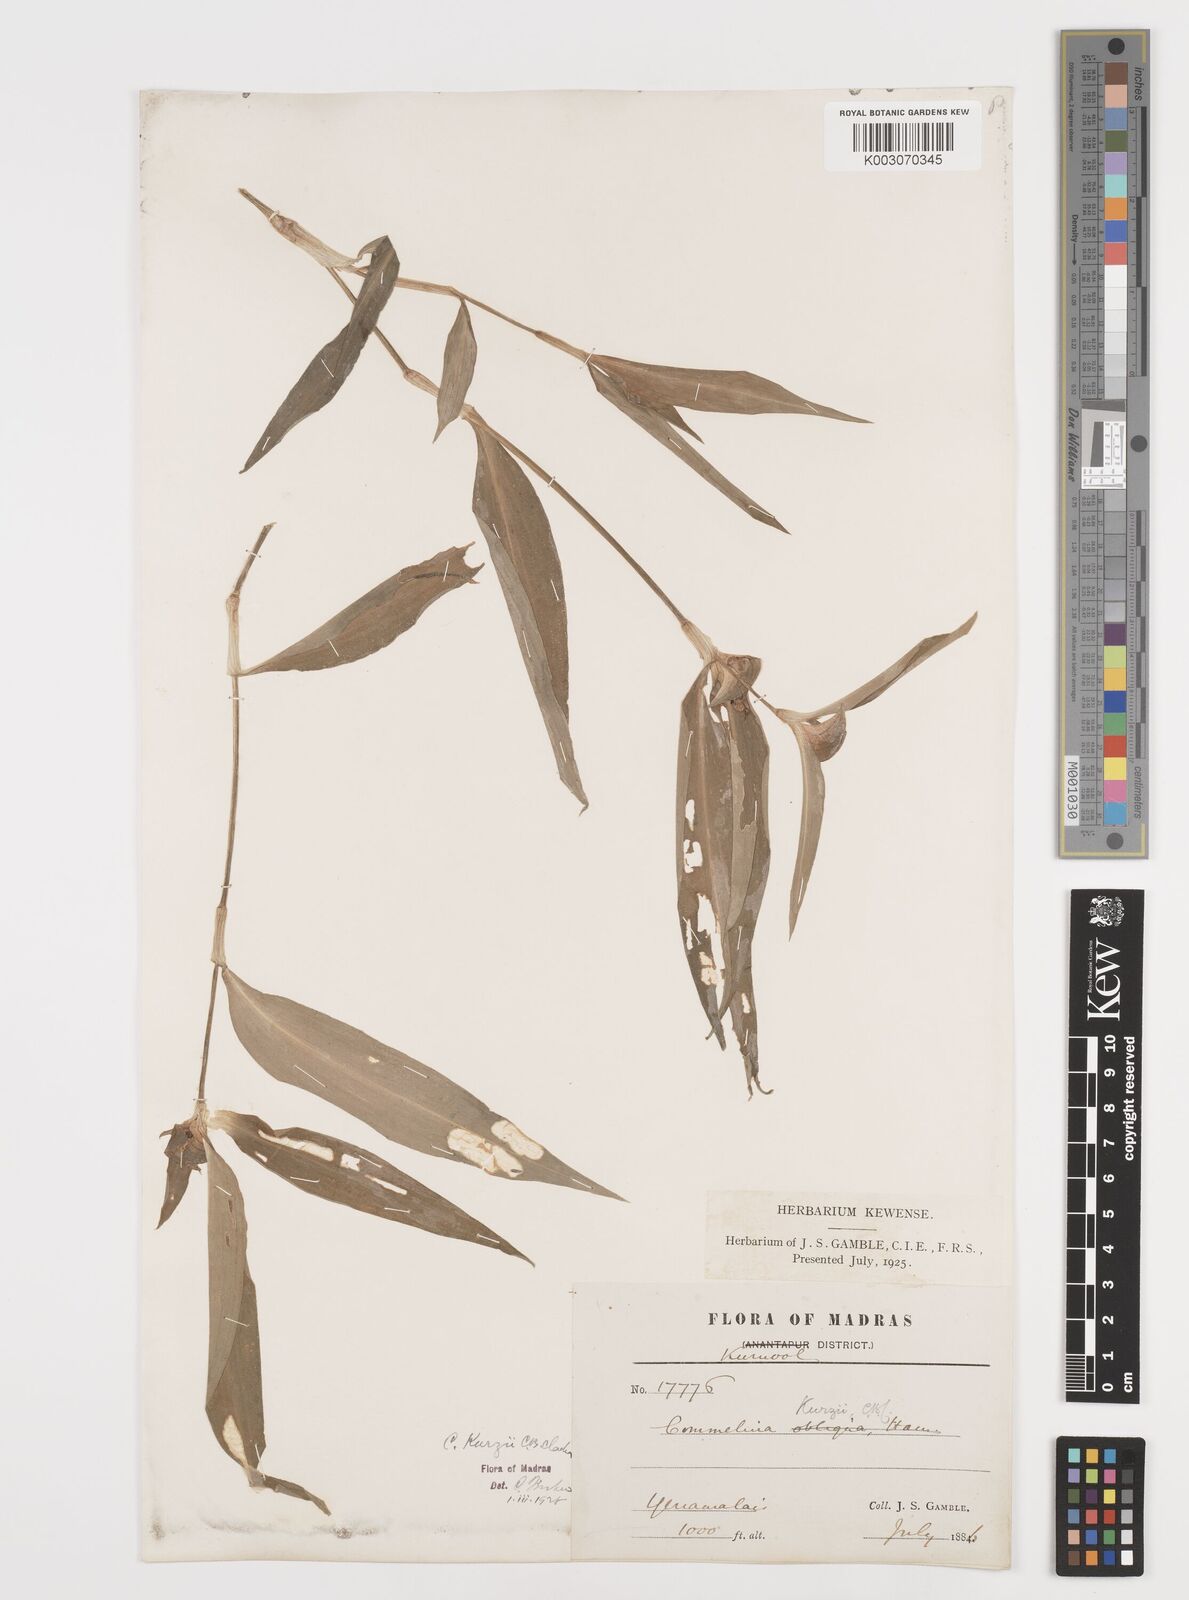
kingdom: Plantae
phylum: Tracheophyta
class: Liliopsida
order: Commelinales
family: Commelinaceae
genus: Commelina
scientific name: Commelina undulata
